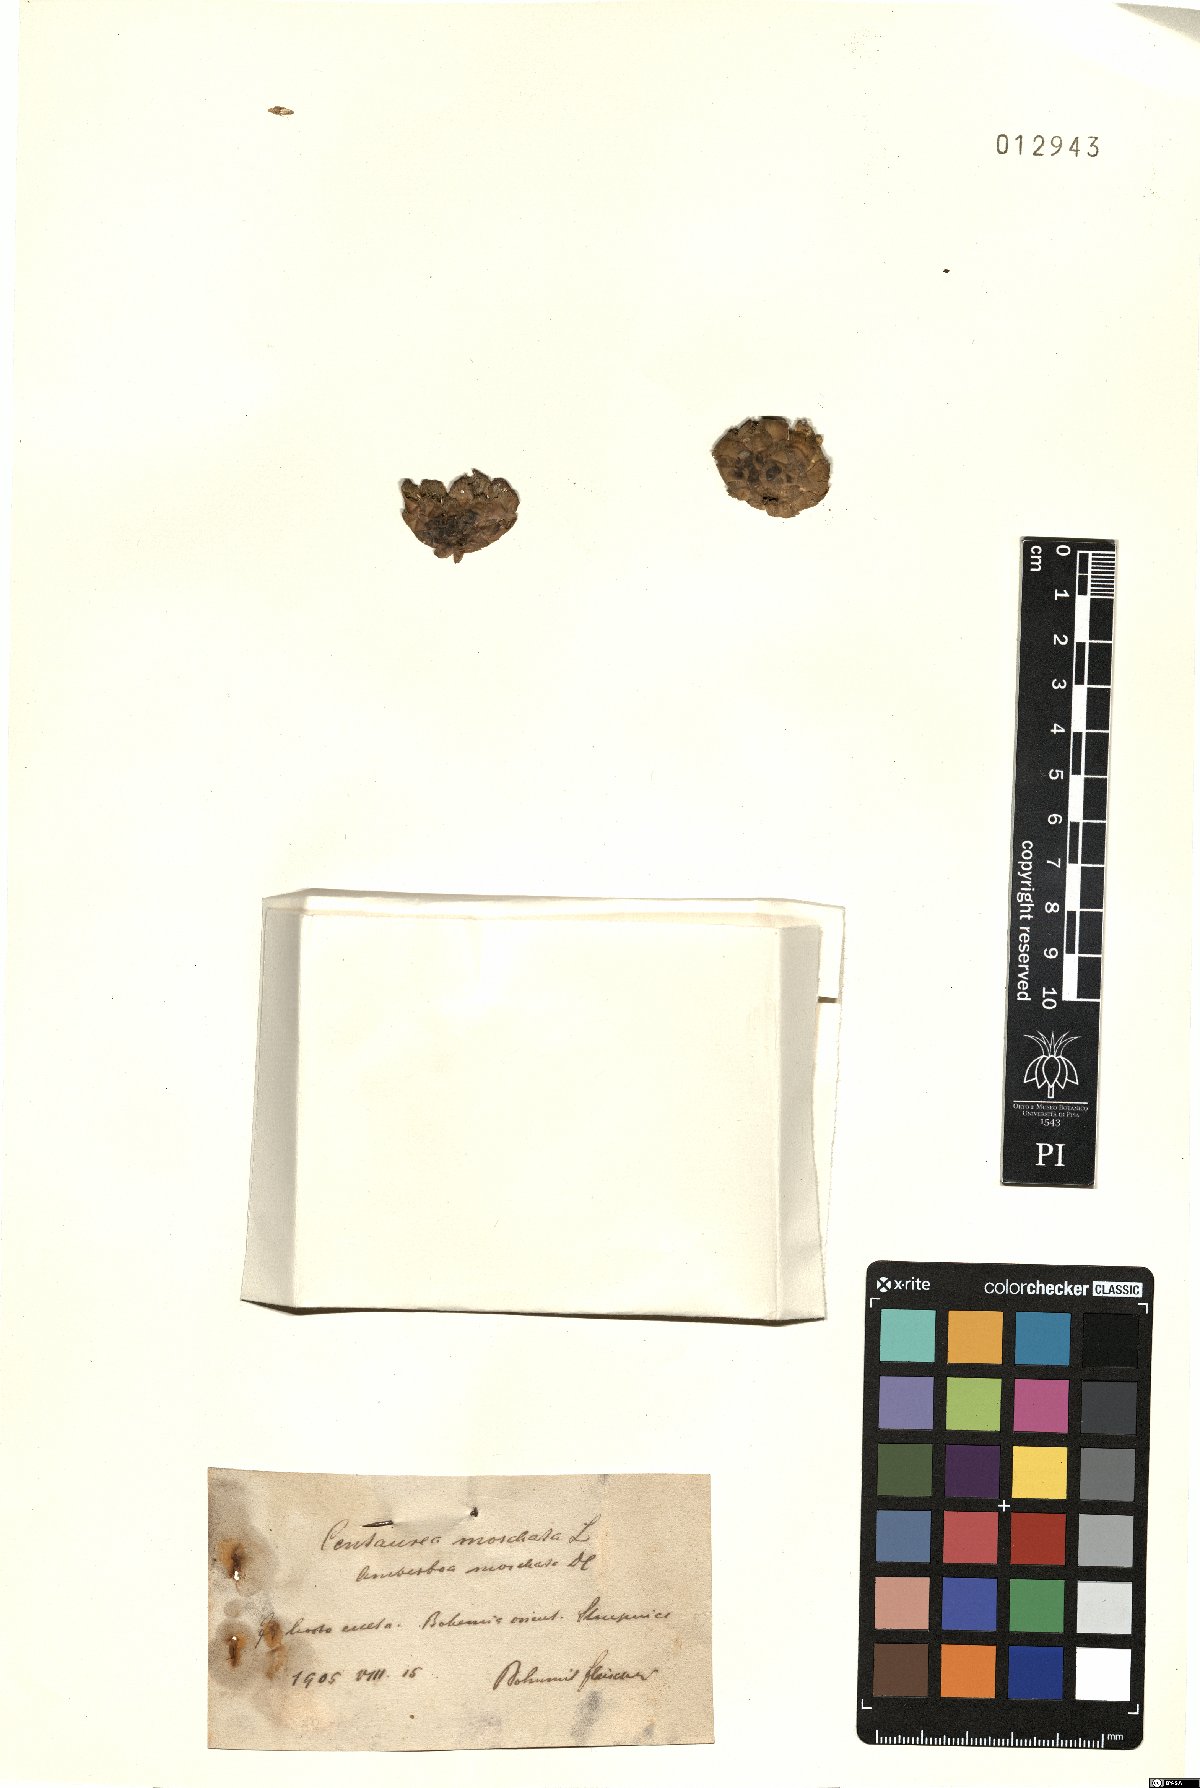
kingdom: Plantae
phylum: Tracheophyta
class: Magnoliopsida
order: Asterales
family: Asteraceae
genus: Amberboa
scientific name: Amberboa moschata
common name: Sweet-sultan
